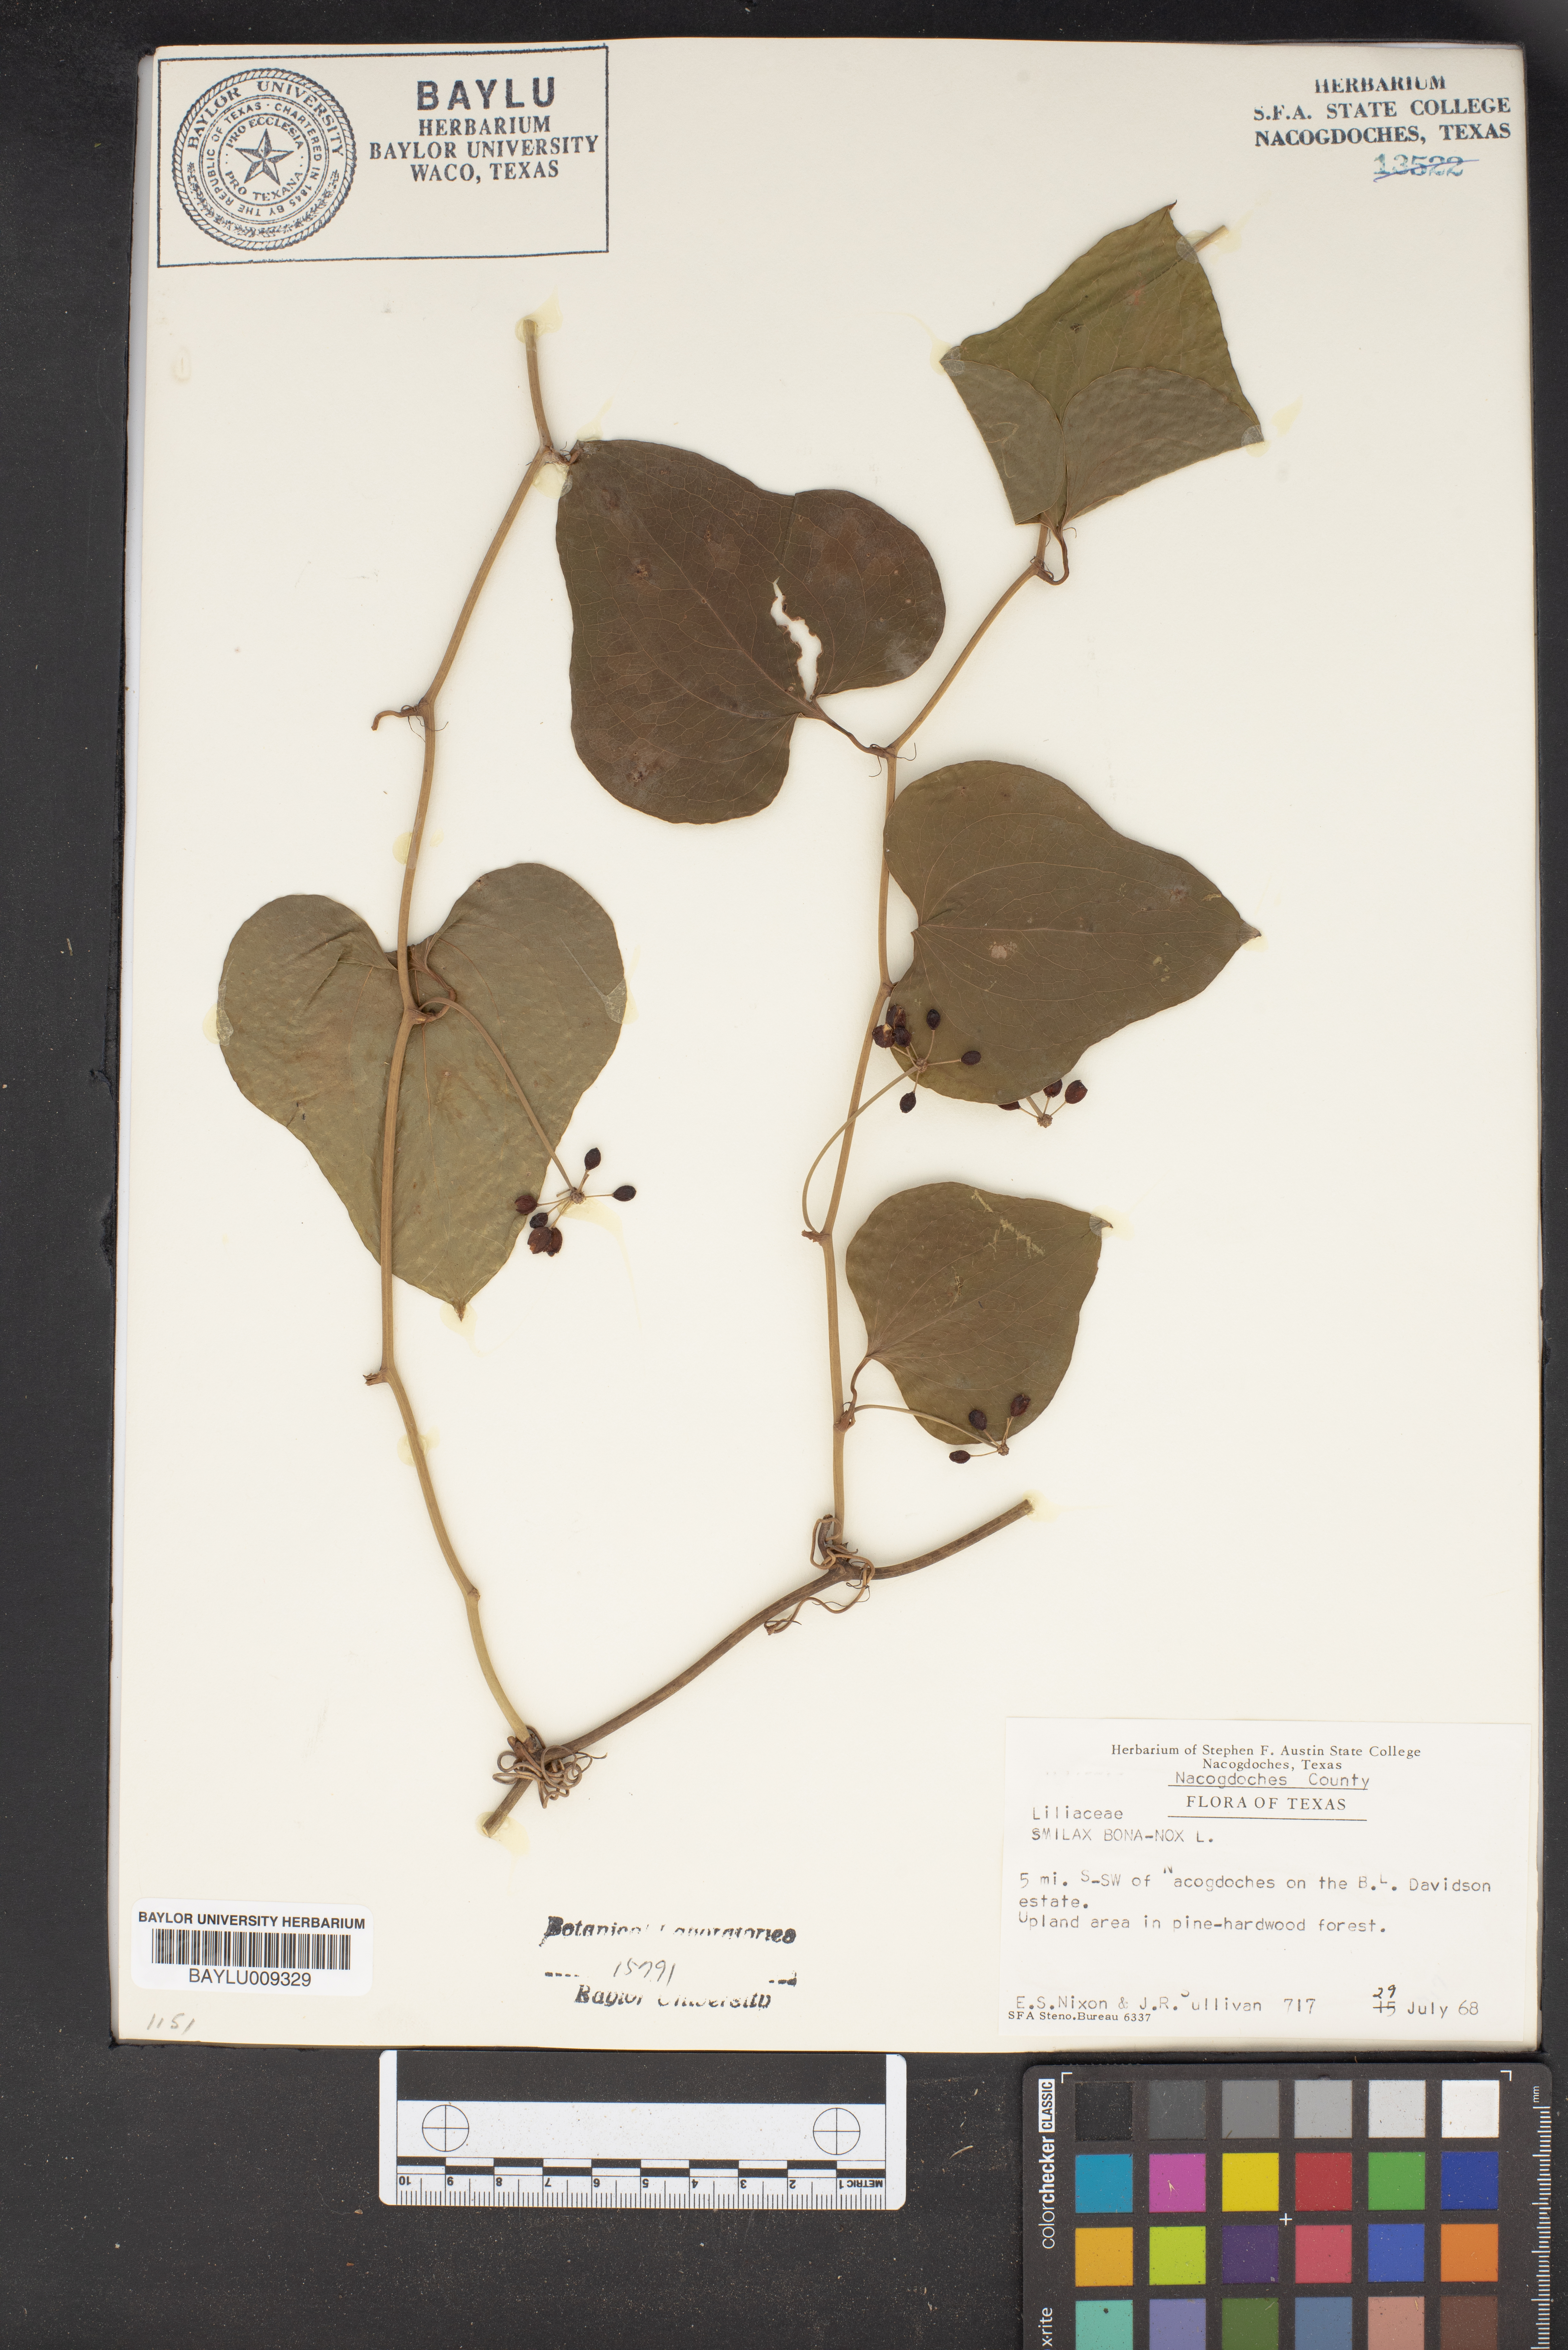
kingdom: Plantae
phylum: Tracheophyta
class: Liliopsida
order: Liliales
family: Smilacaceae
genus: Smilax
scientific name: Smilax bona-nox
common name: Catbrier
